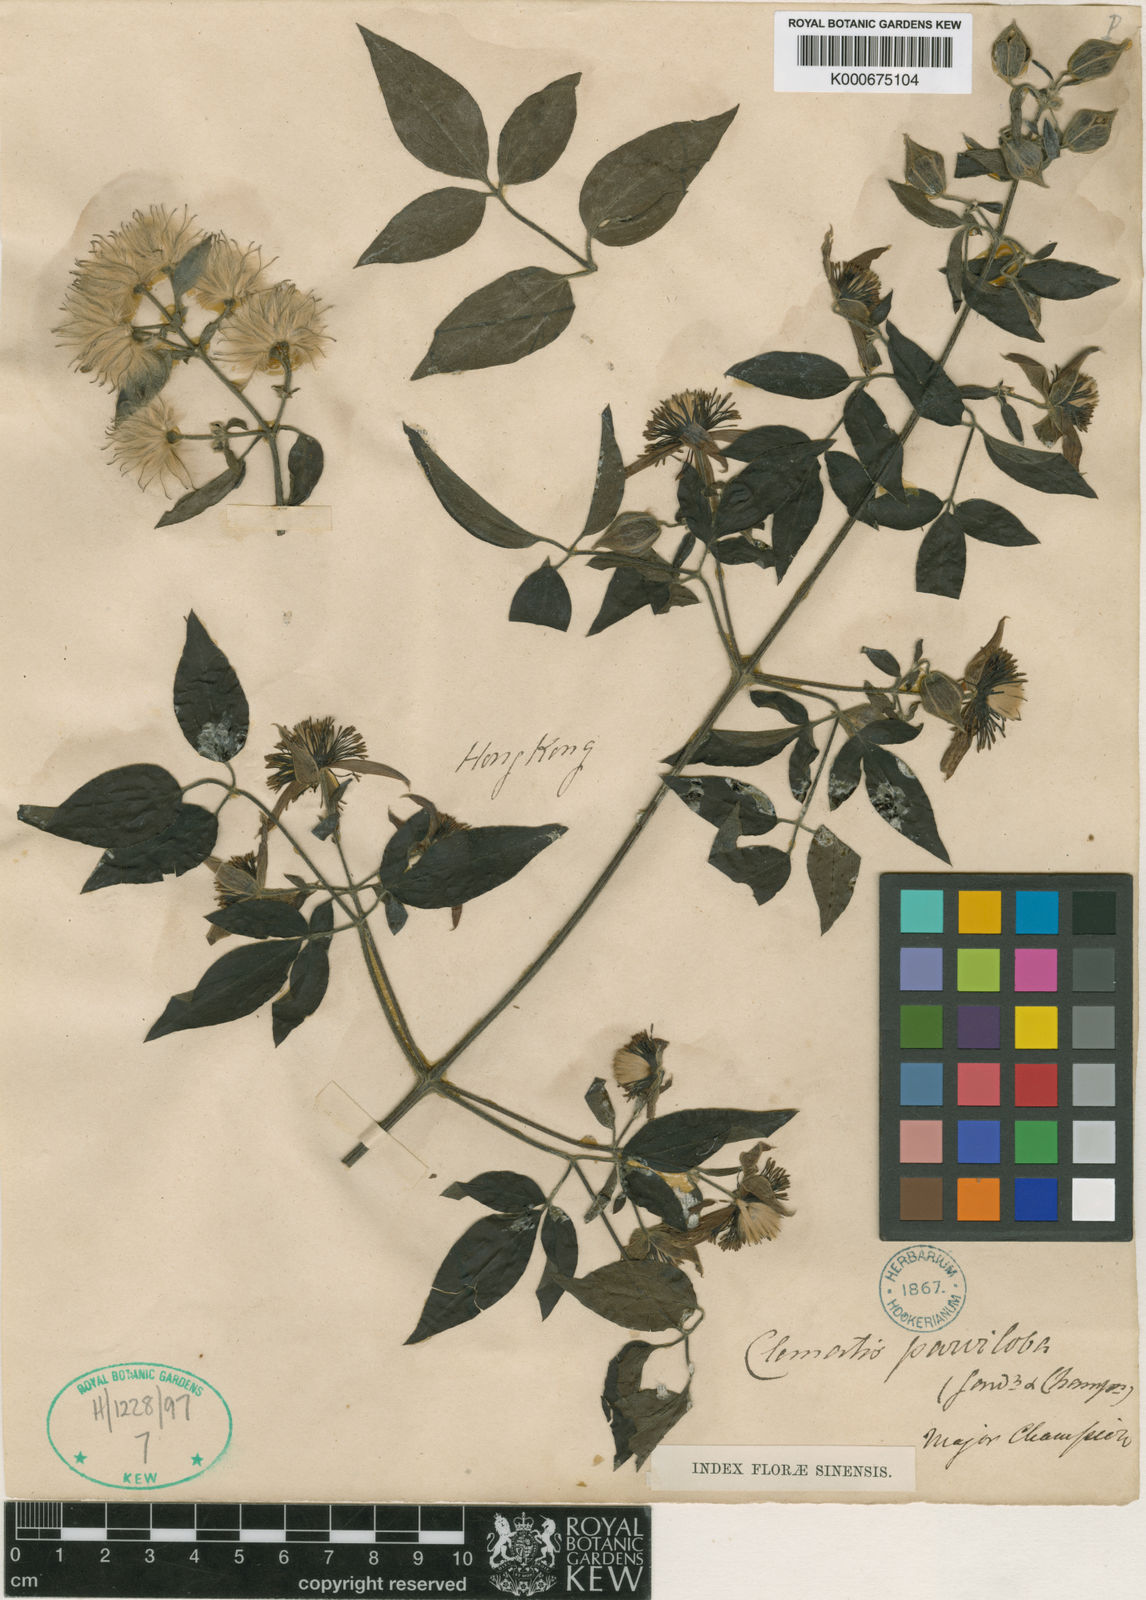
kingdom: Plantae
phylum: Tracheophyta
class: Magnoliopsida
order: Ranunculales
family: Ranunculaceae
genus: Clematis
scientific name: Clematis parviloba
